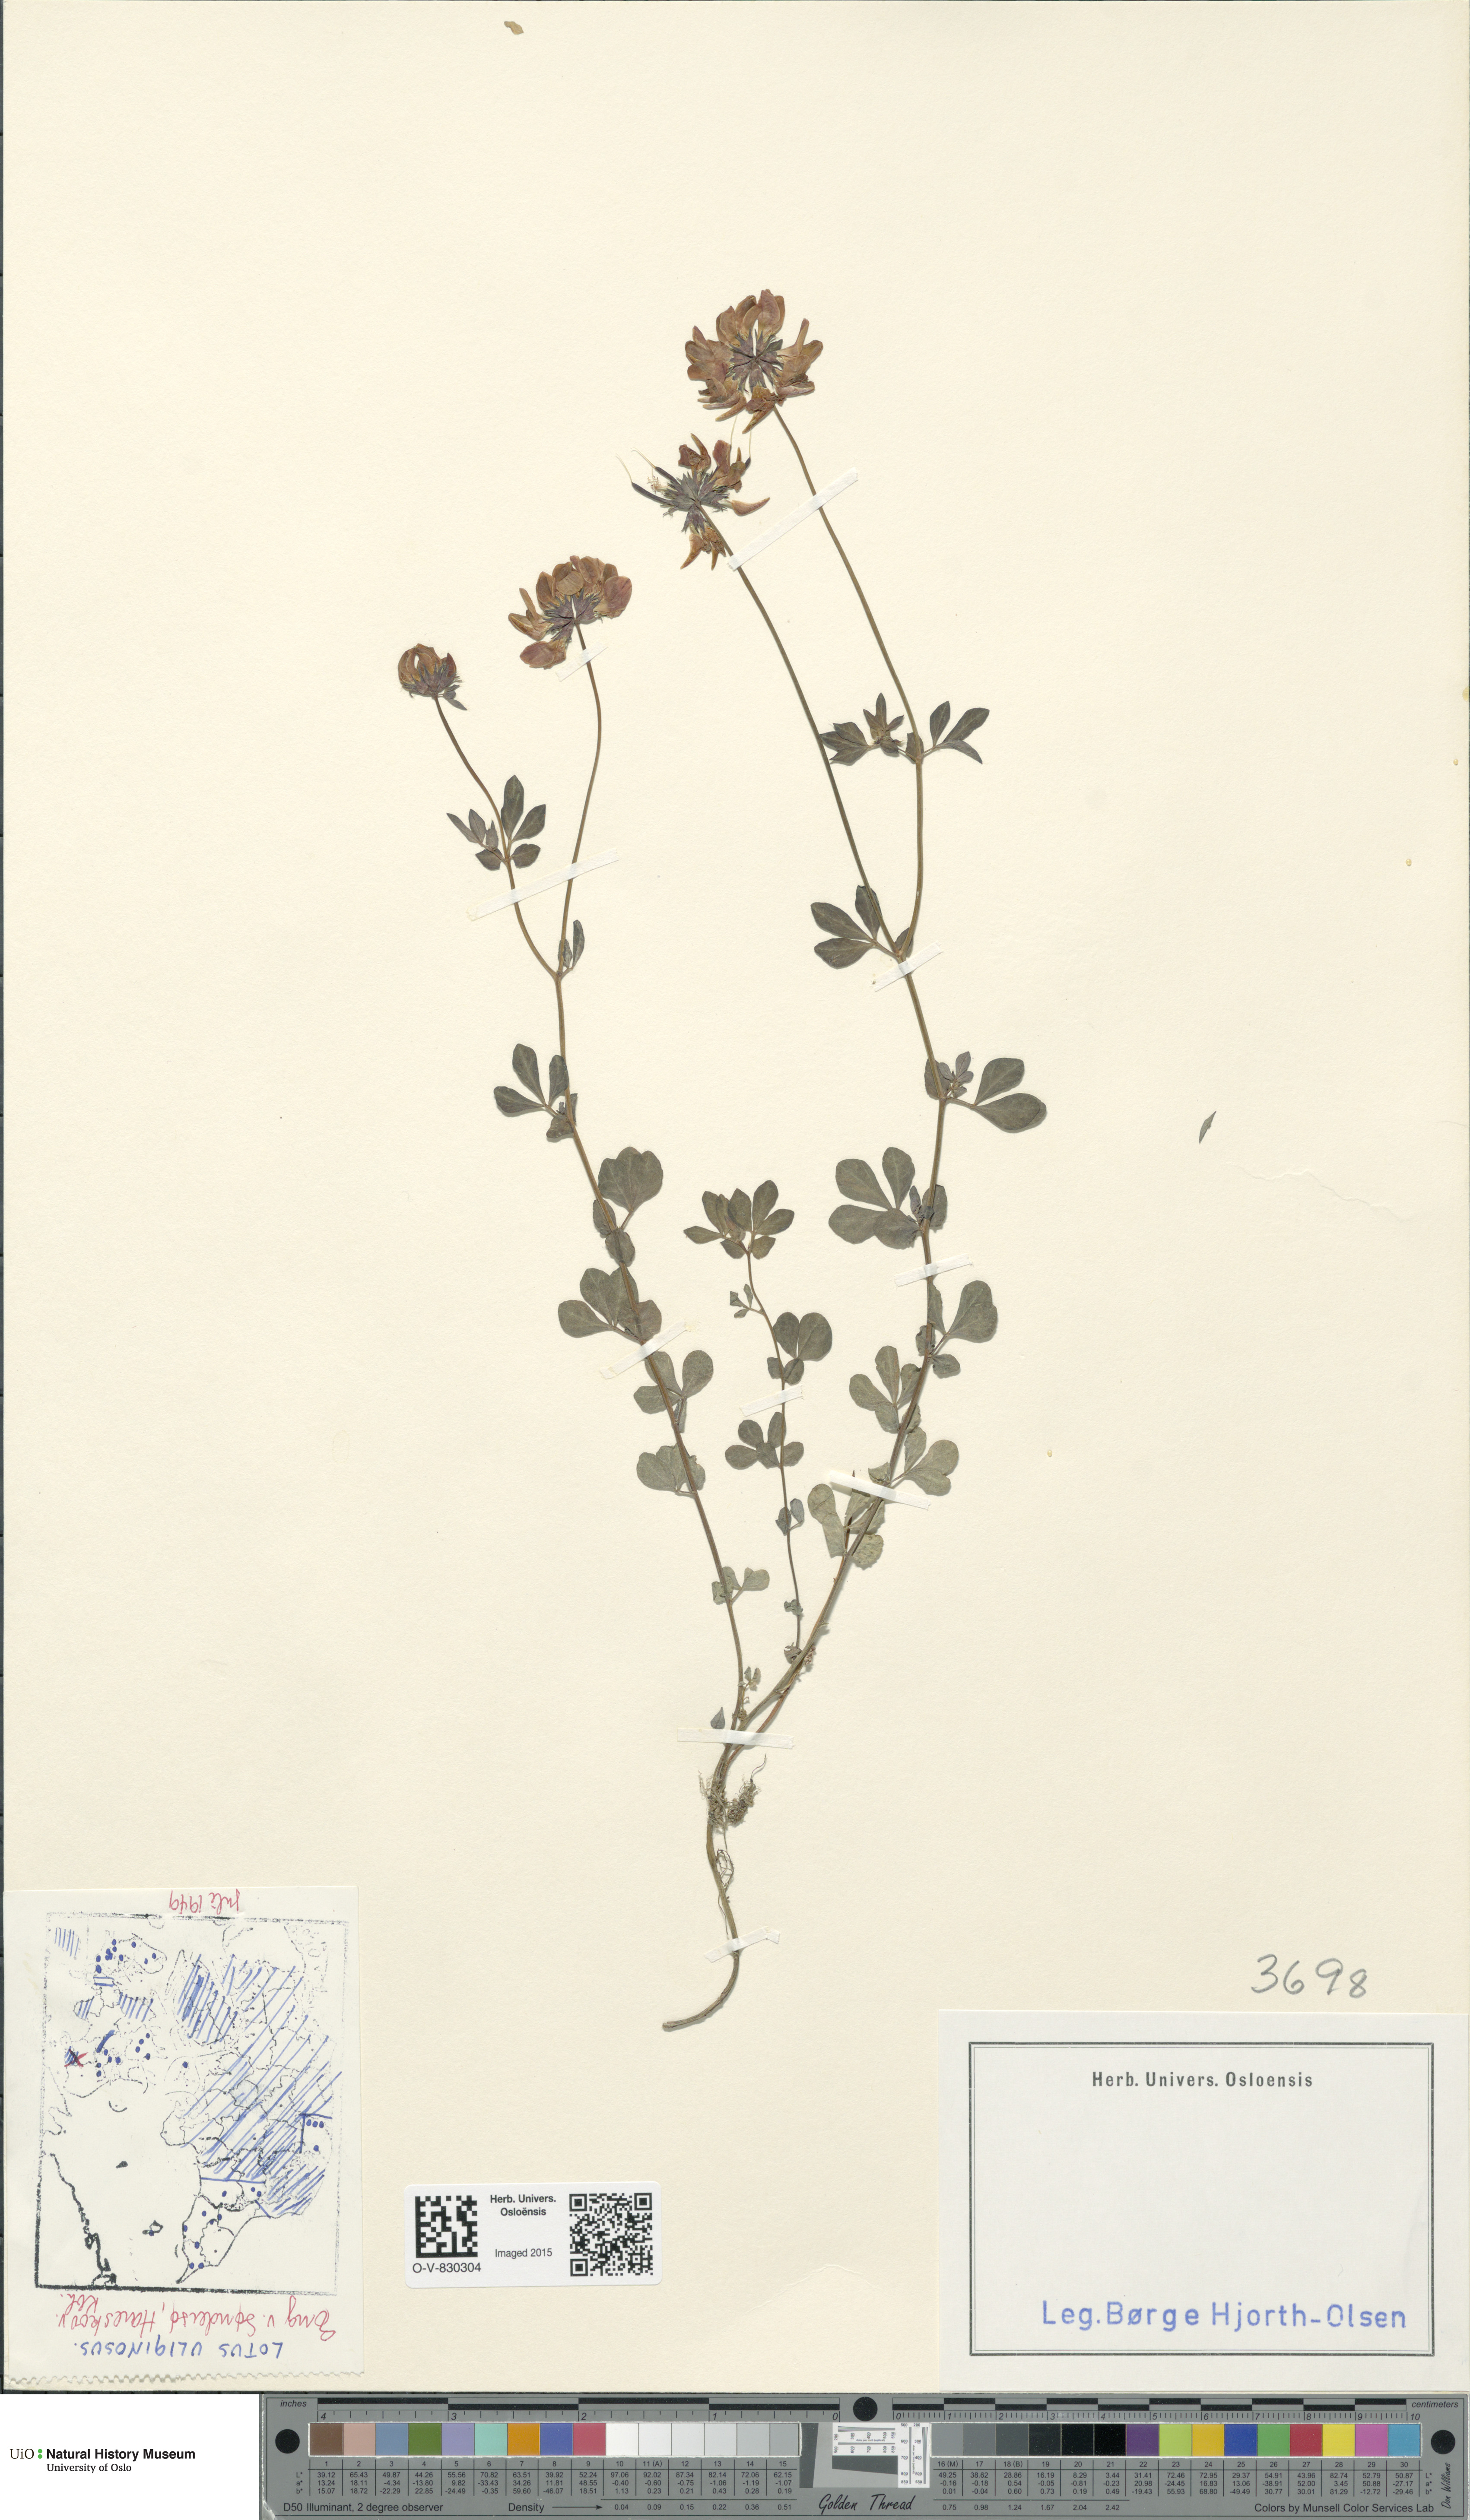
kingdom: Plantae
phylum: Tracheophyta
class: Magnoliopsida
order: Fabales
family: Fabaceae
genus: Lotus
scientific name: Lotus pedunculatus
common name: Greater birdsfoot-trefoil
